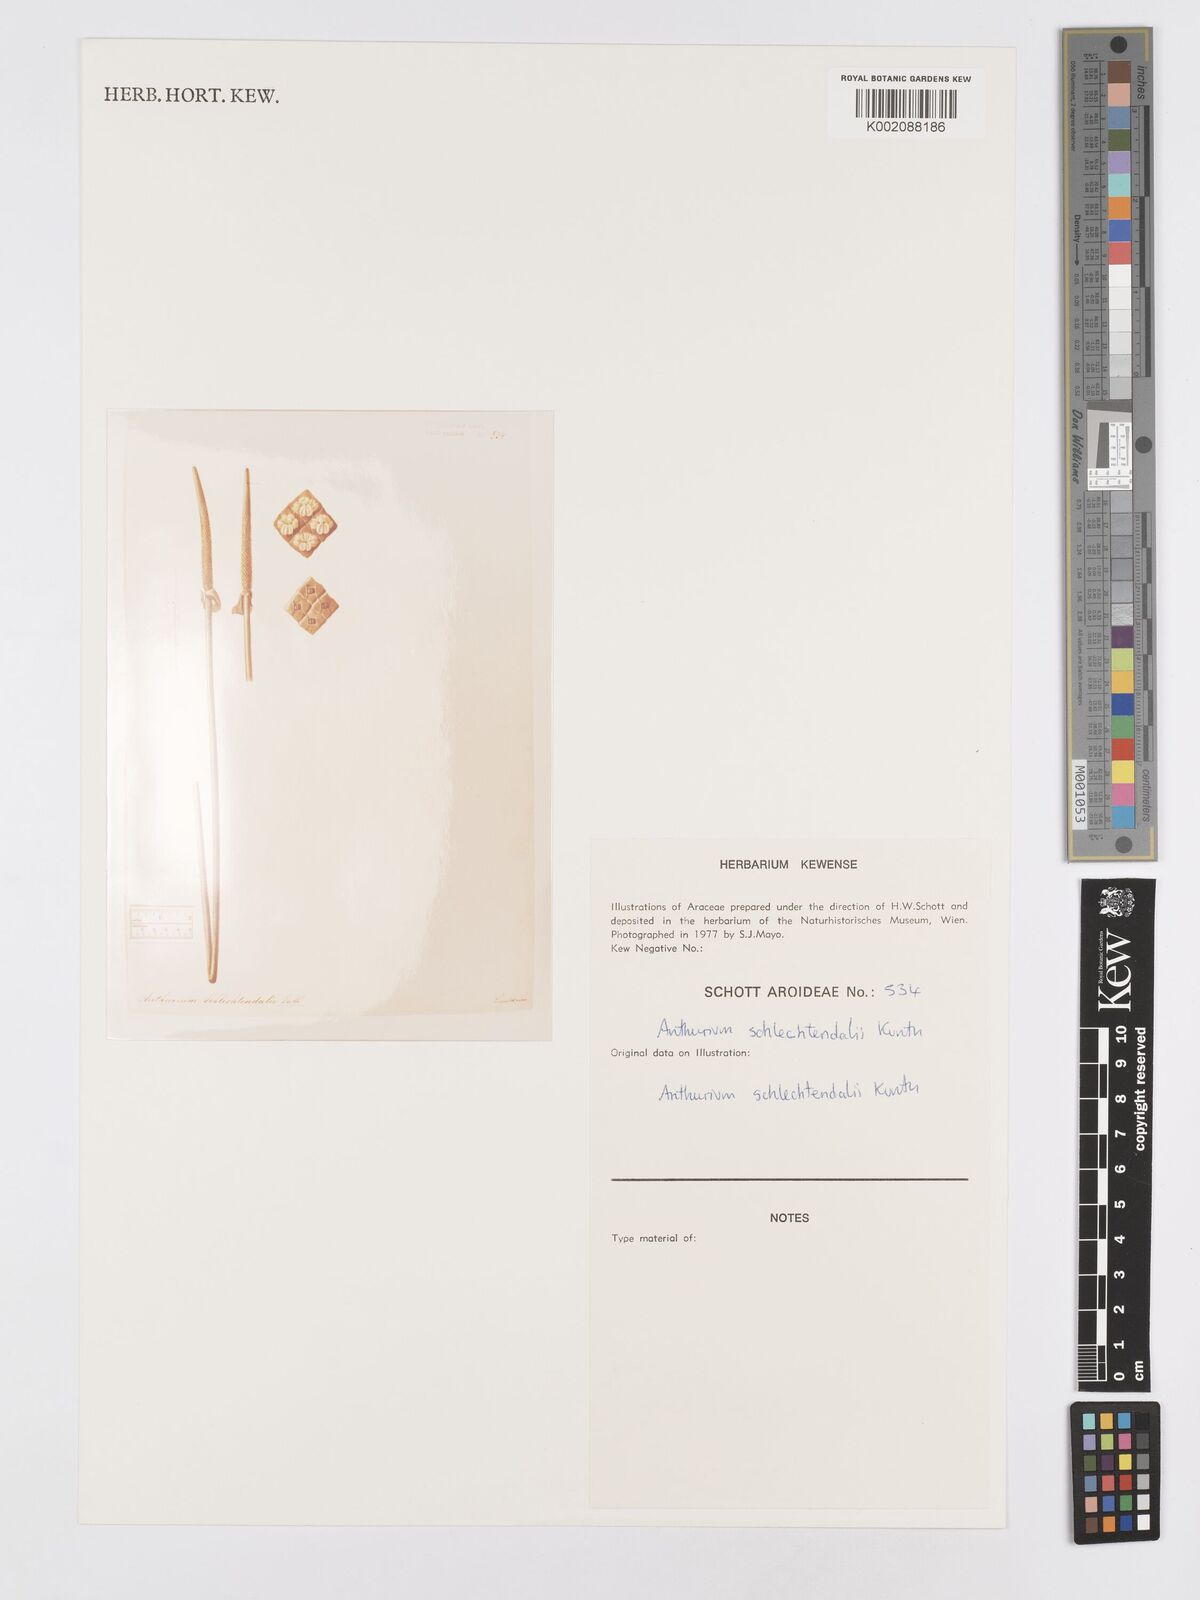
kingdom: Plantae
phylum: Tracheophyta
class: Liliopsida
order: Alismatales
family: Araceae
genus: Anthurium
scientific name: Anthurium schlechtendalii
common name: Laceleaf
